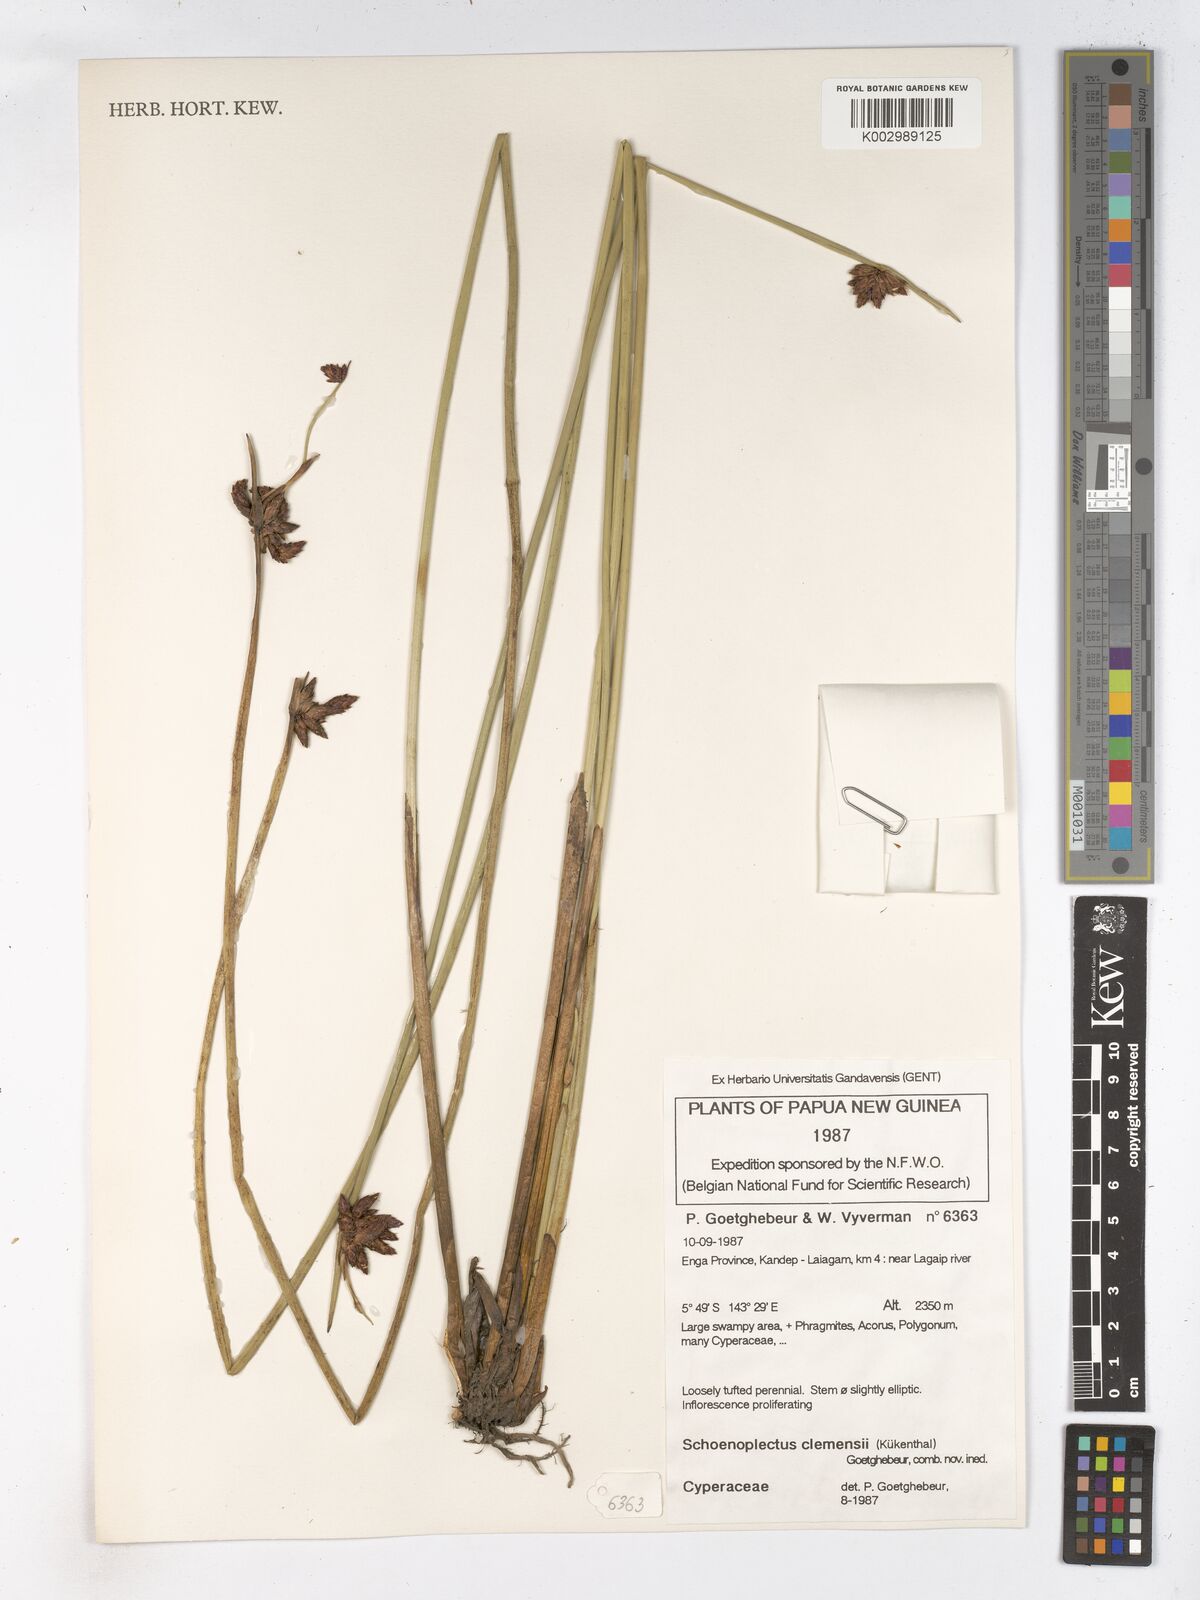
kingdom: Plantae
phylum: Tracheophyta
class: Liliopsida
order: Poales
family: Cyperaceae
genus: Schoenoplectiella
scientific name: Schoenoplectiella mucronata
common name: Bog bulrush
